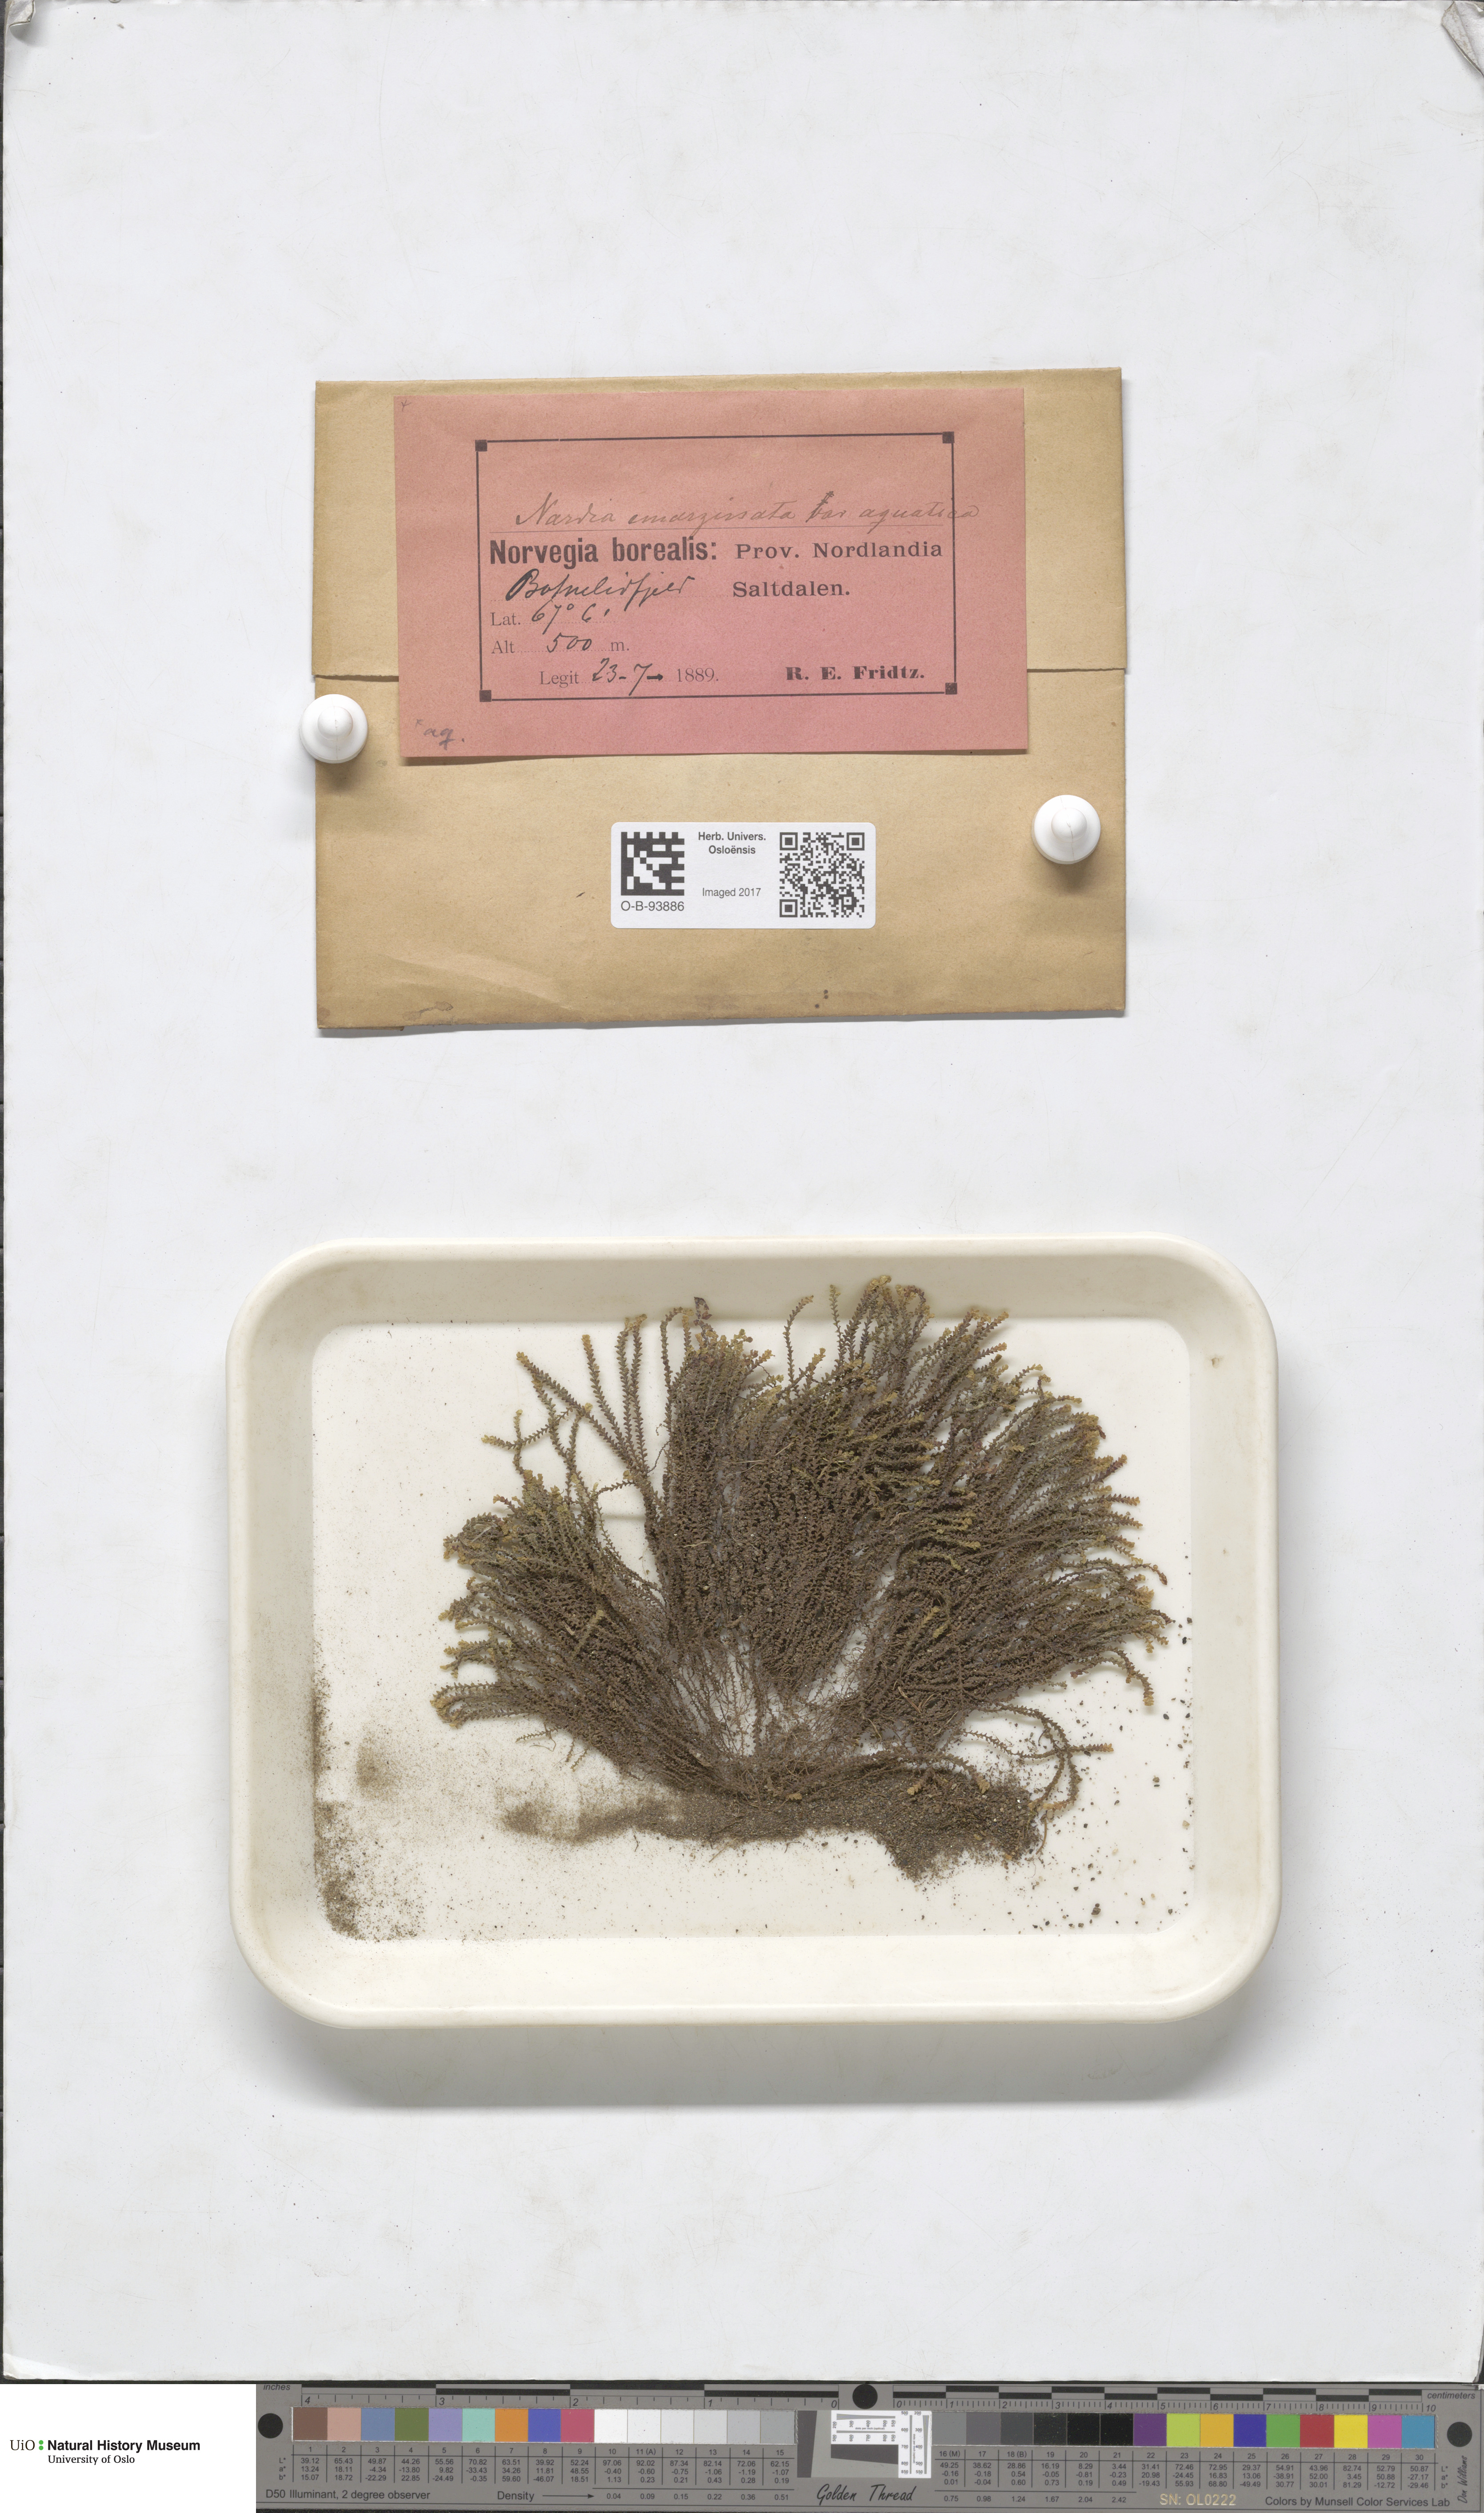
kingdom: Plantae
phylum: Marchantiophyta
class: Jungermanniopsida
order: Jungermanniales
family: Gymnomitriaceae
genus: Marsupella
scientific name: Marsupella emarginata
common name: Notched rustwort
